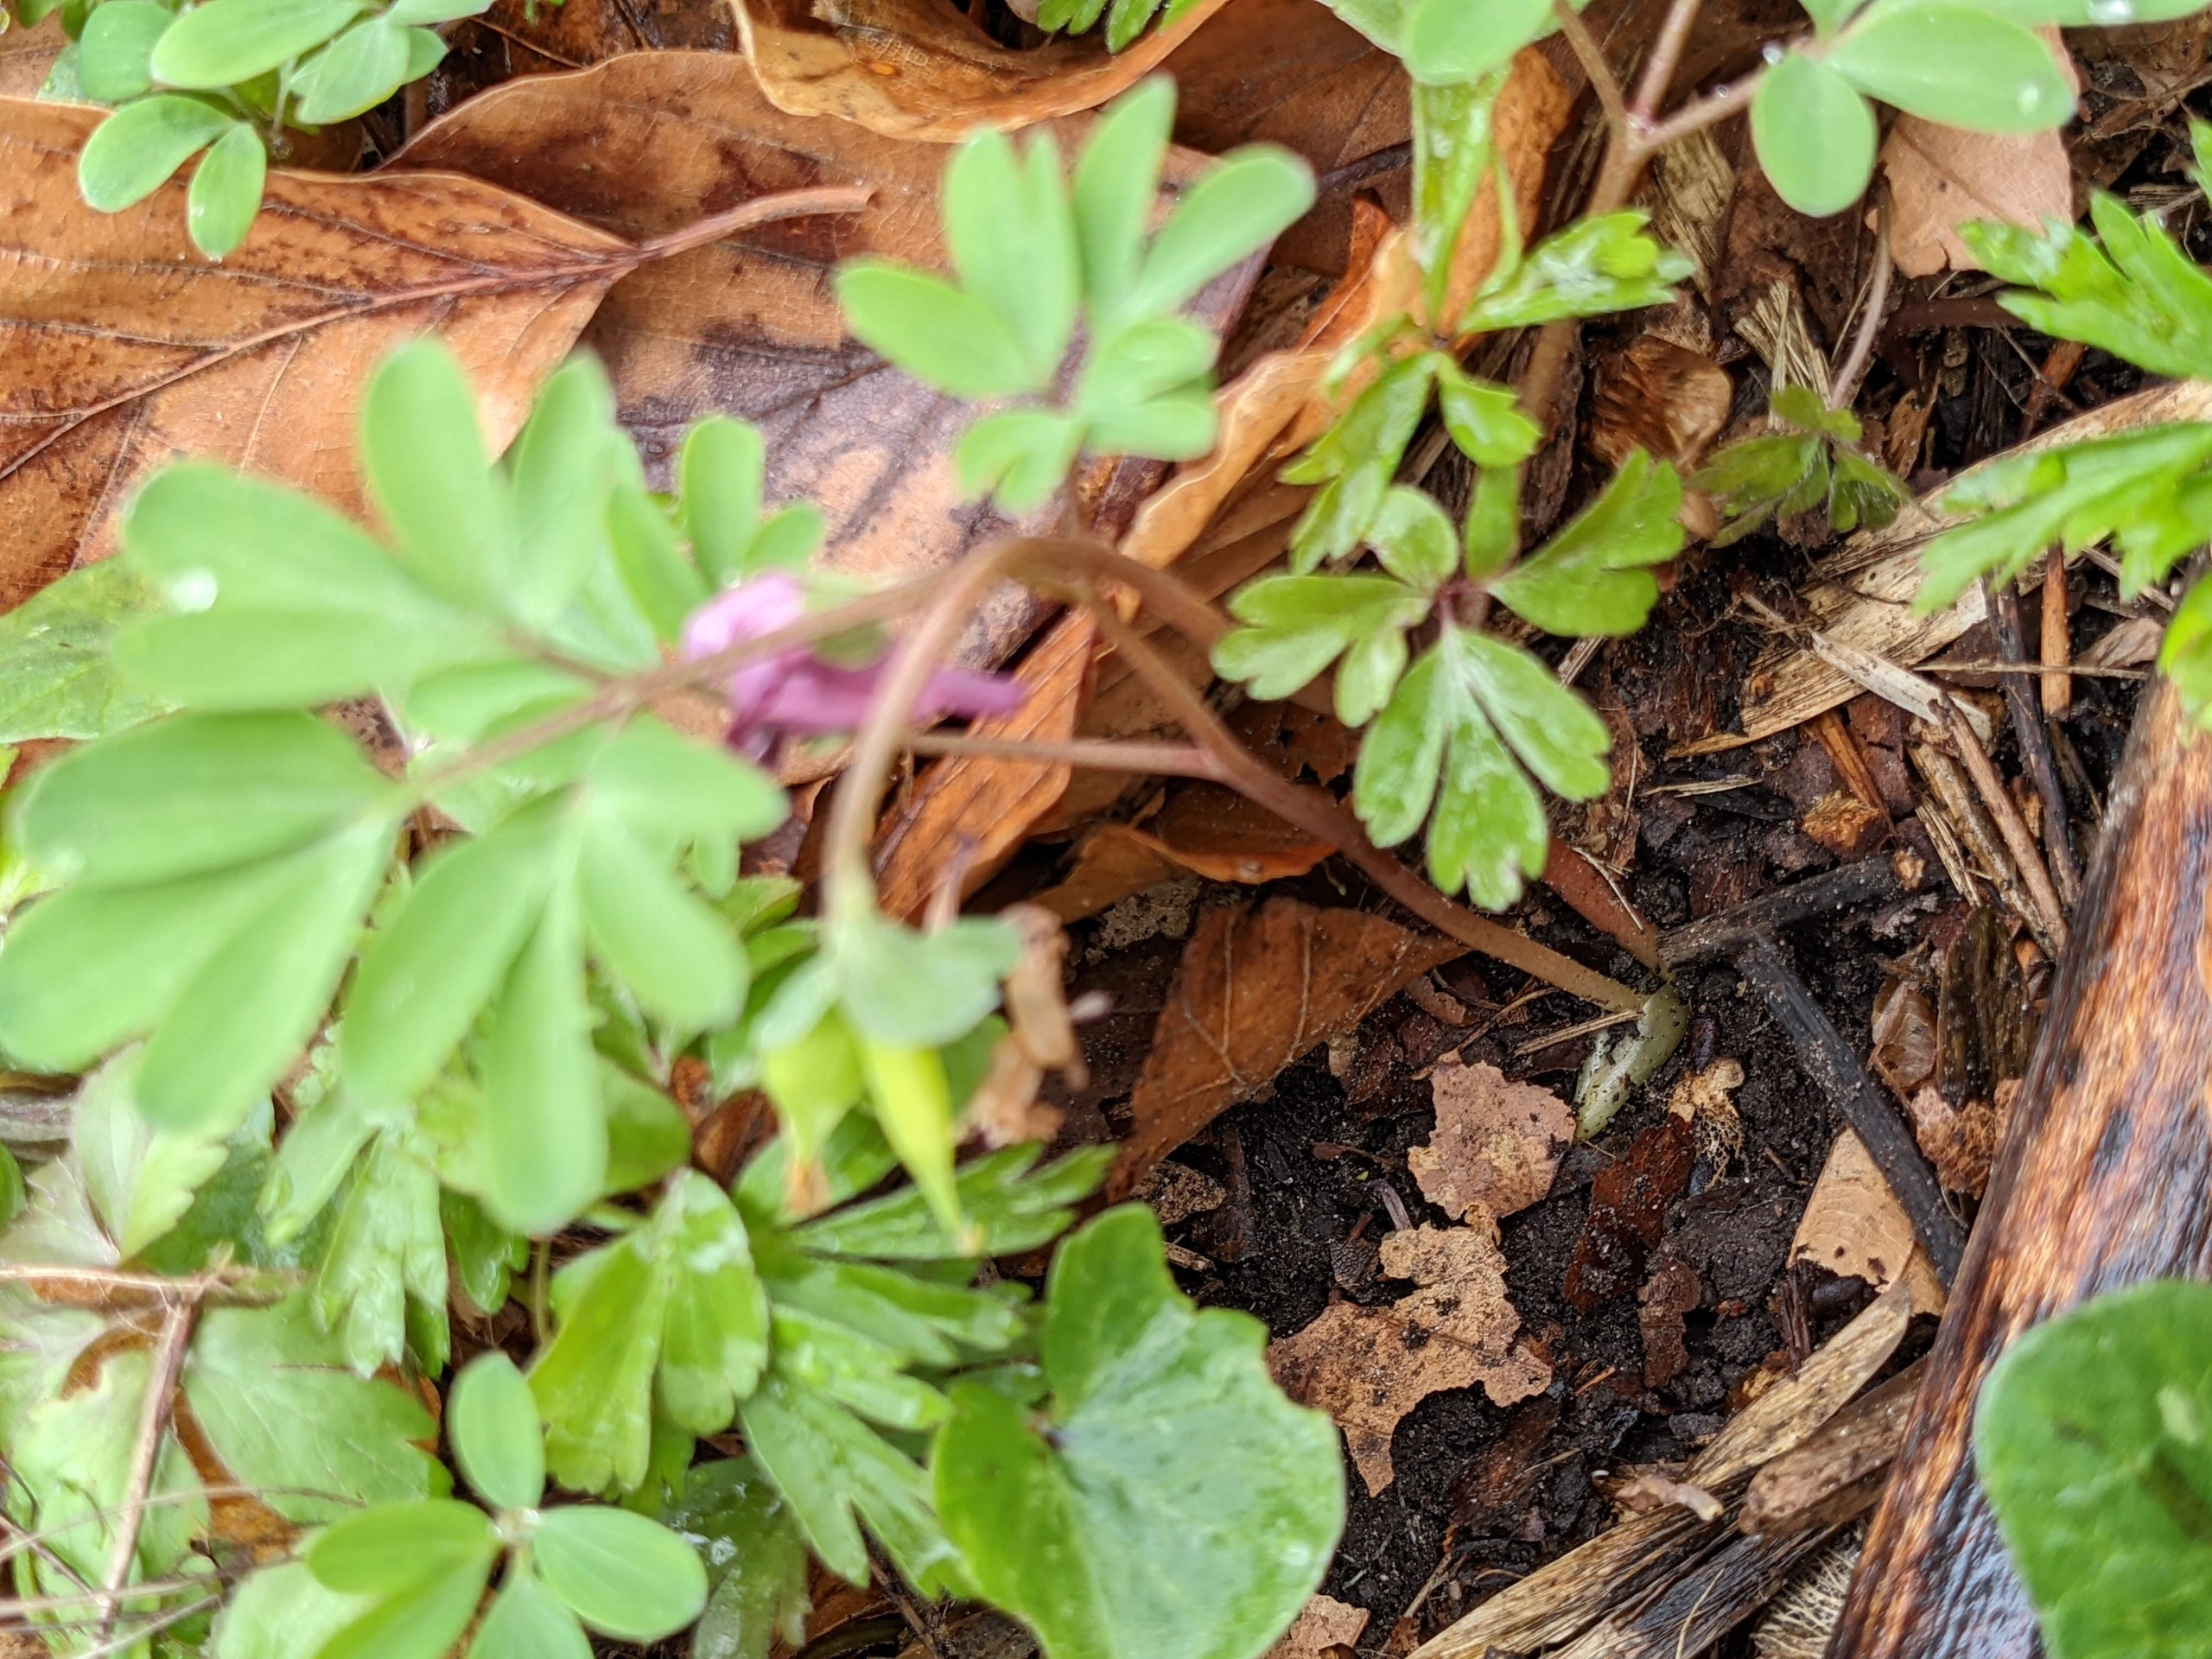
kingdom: Plantae
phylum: Tracheophyta
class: Magnoliopsida
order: Ranunculales
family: Papaveraceae
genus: Corydalis
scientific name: Corydalis intermedia
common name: Liden lærkespore
